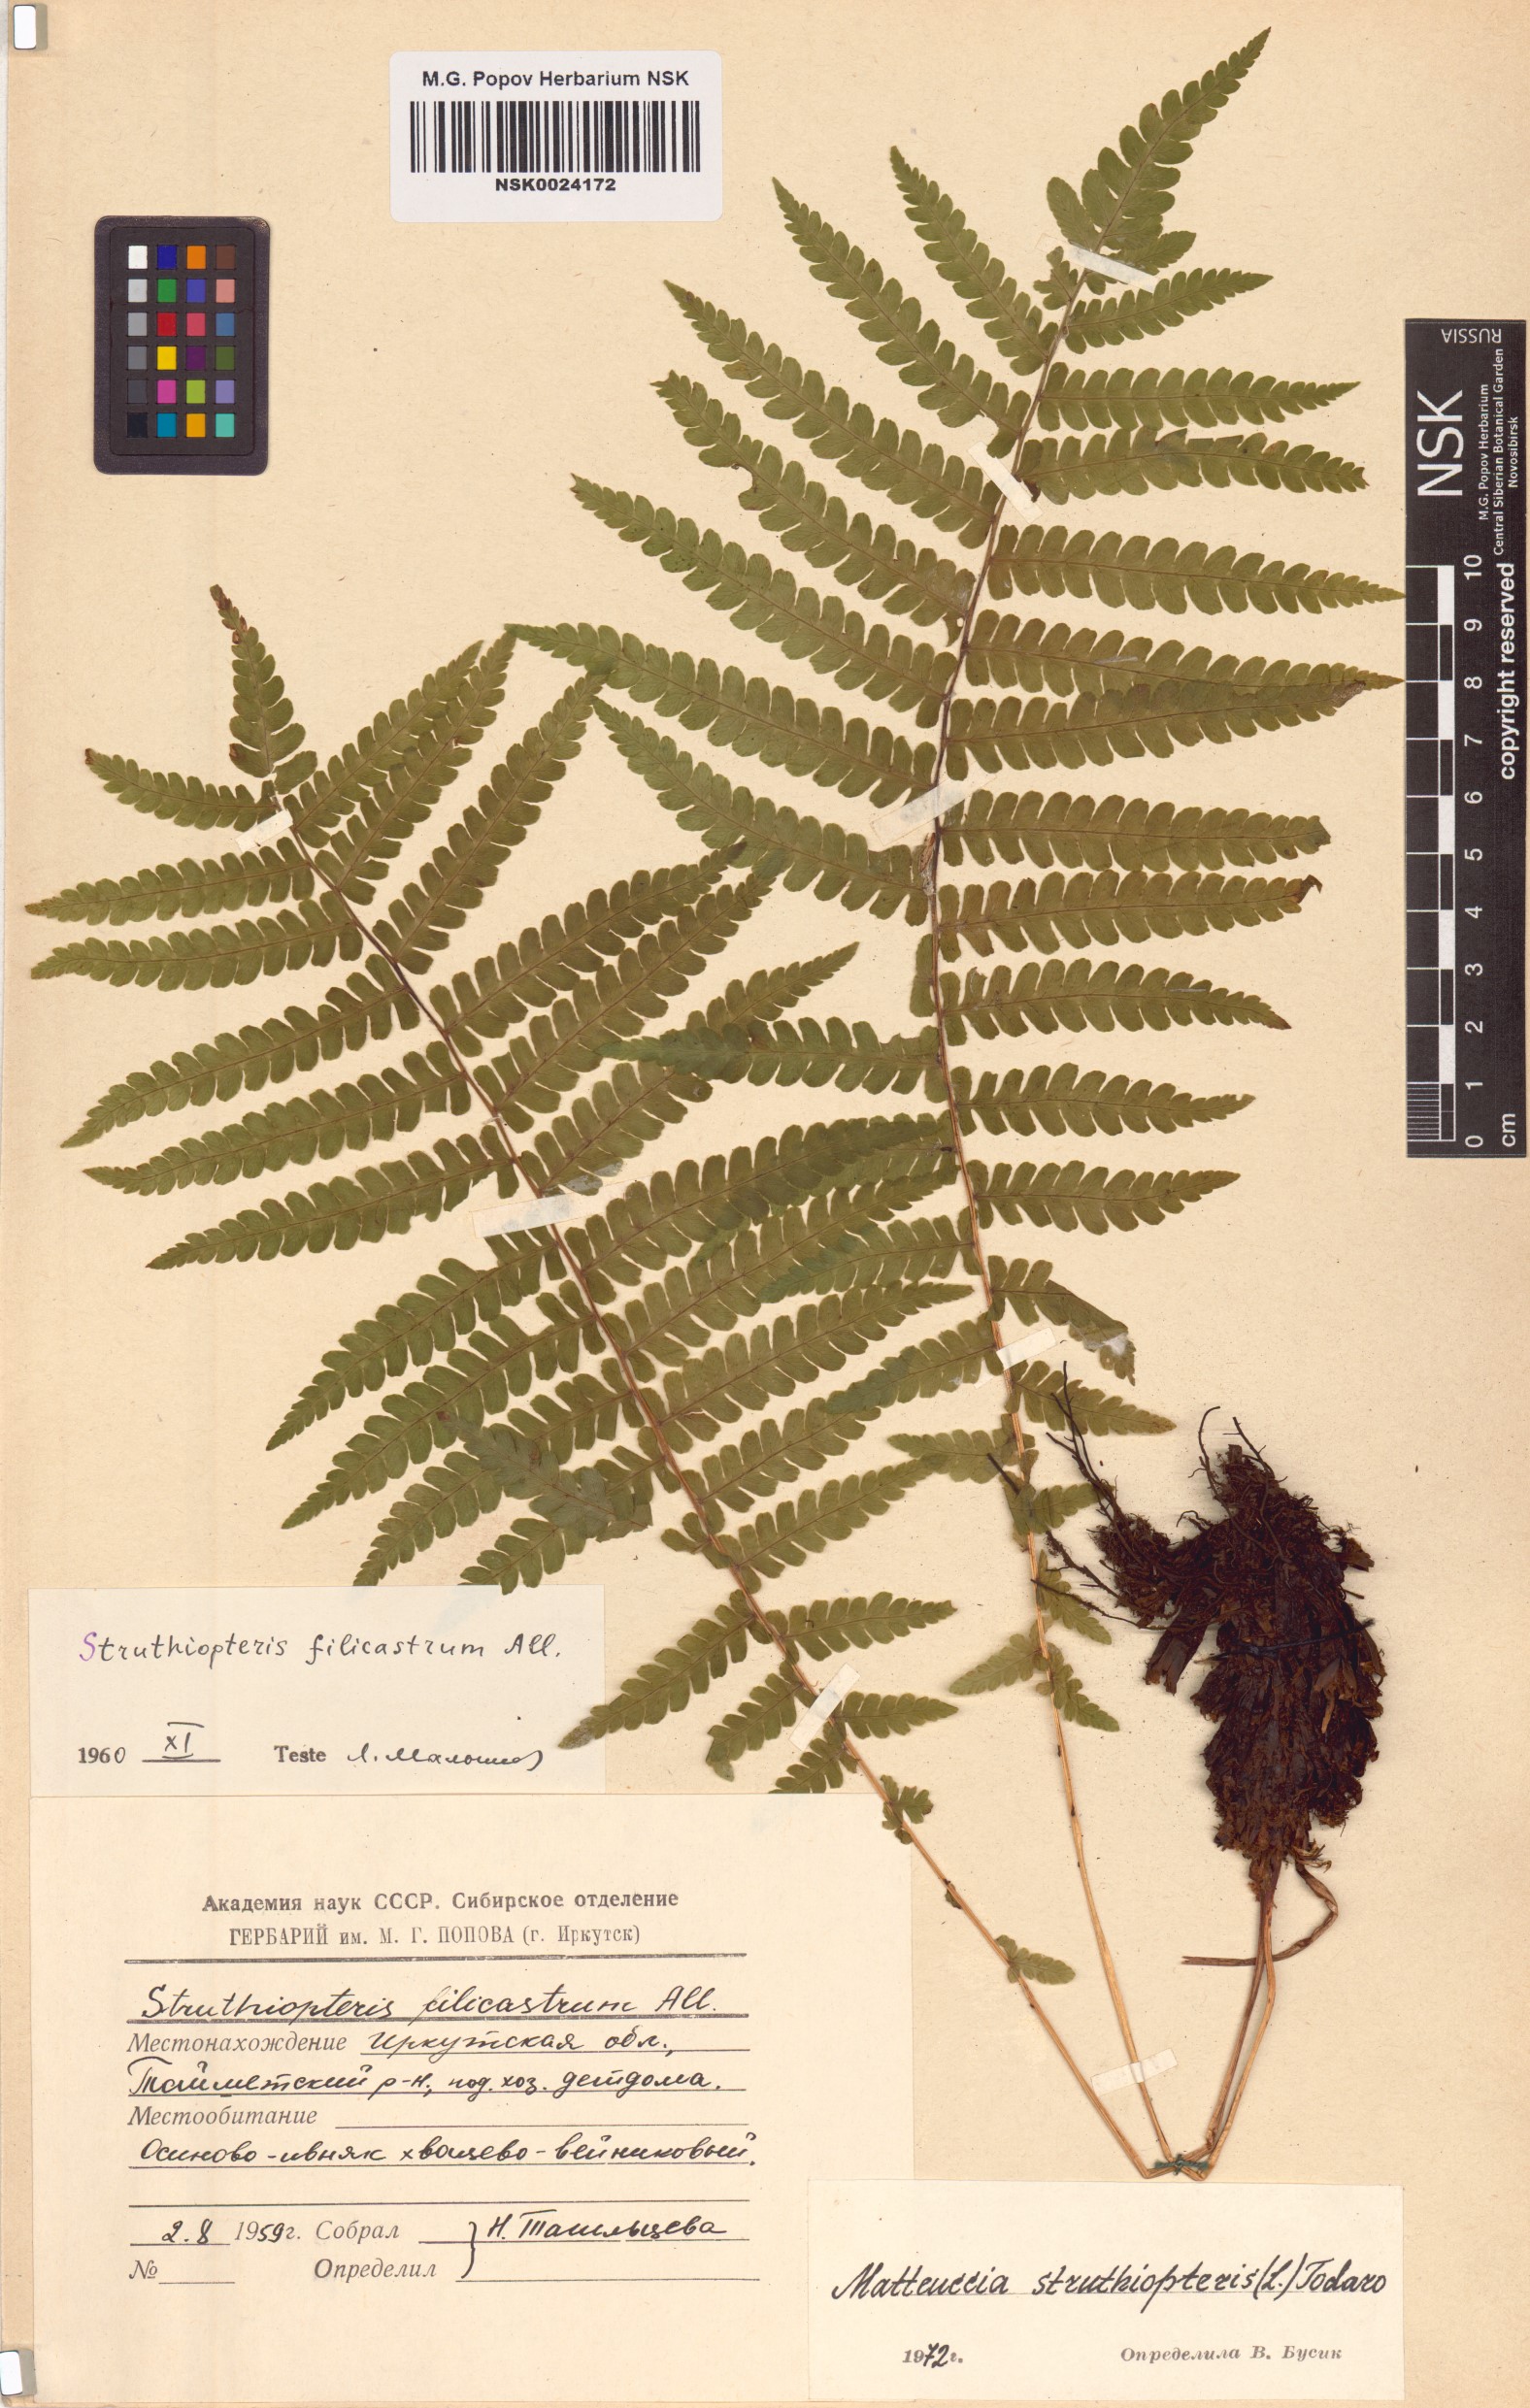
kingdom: Plantae
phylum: Tracheophyta
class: Polypodiopsida
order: Polypodiales
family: Onocleaceae
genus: Matteuccia
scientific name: Matteuccia struthiopteris
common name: Ostrich fern
